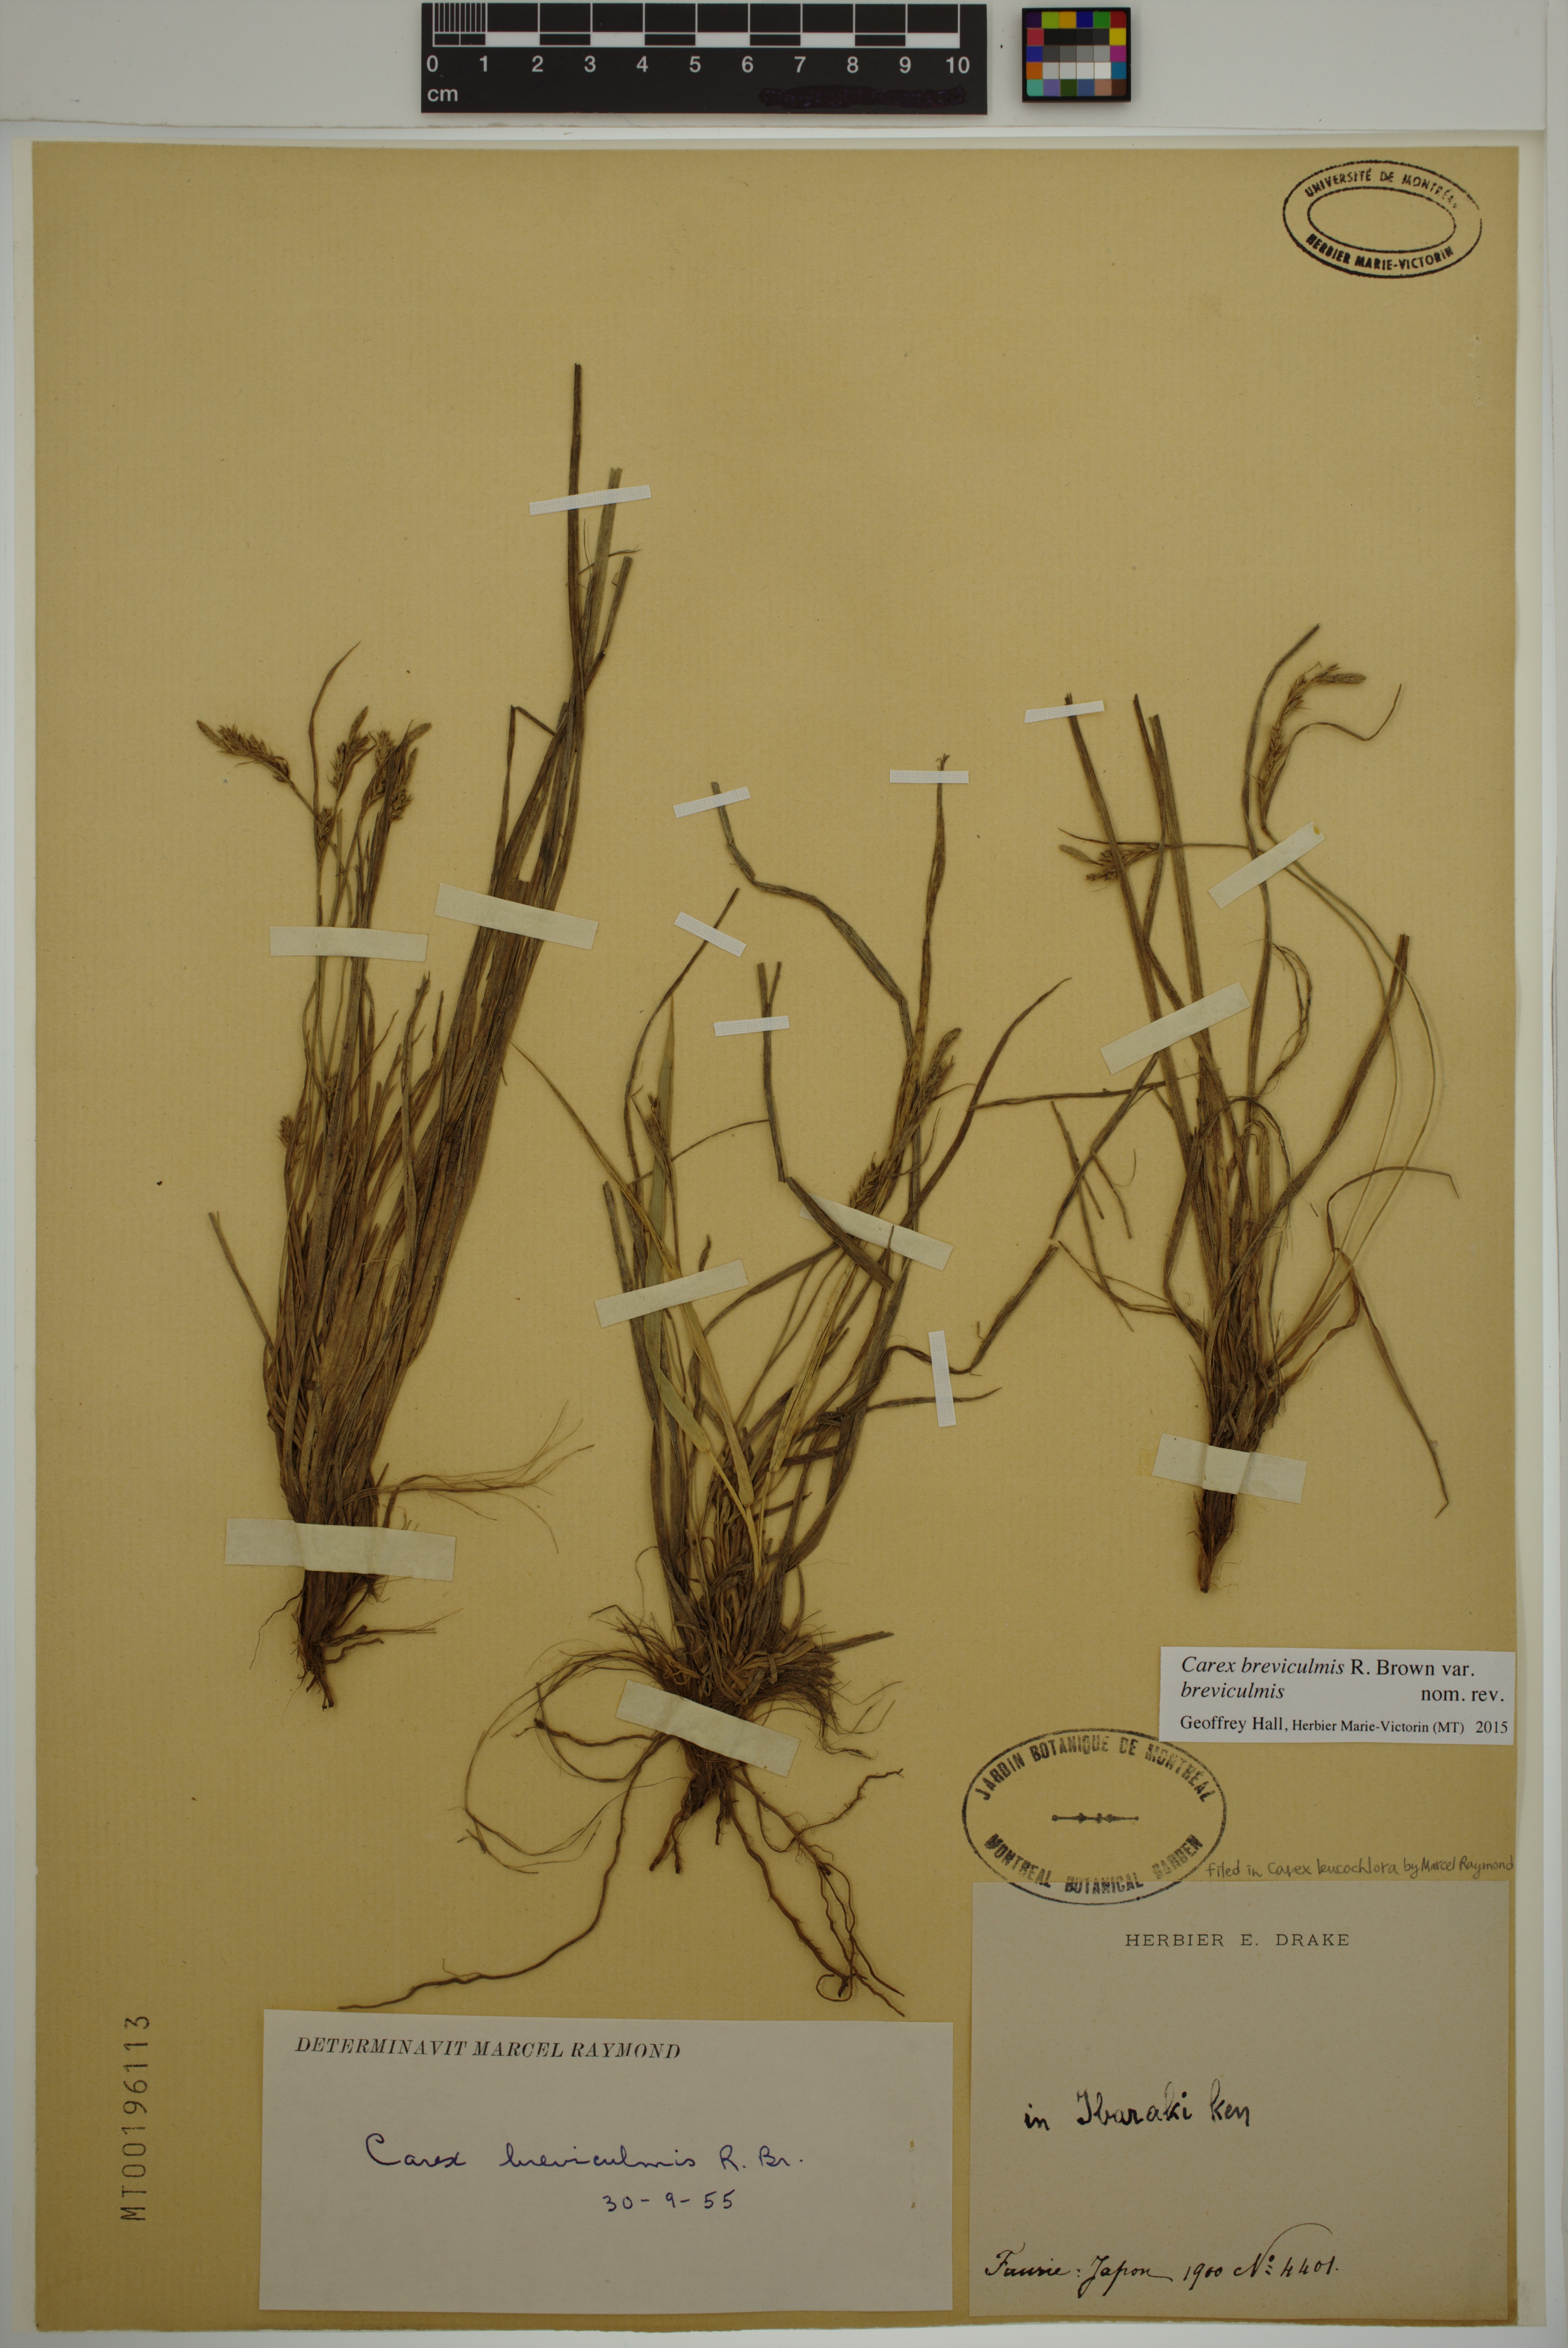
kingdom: Plantae
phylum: Tracheophyta
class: Liliopsida
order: Poales
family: Cyperaceae
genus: Carex
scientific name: Carex breviculmis
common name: Asian shortstem sedge
